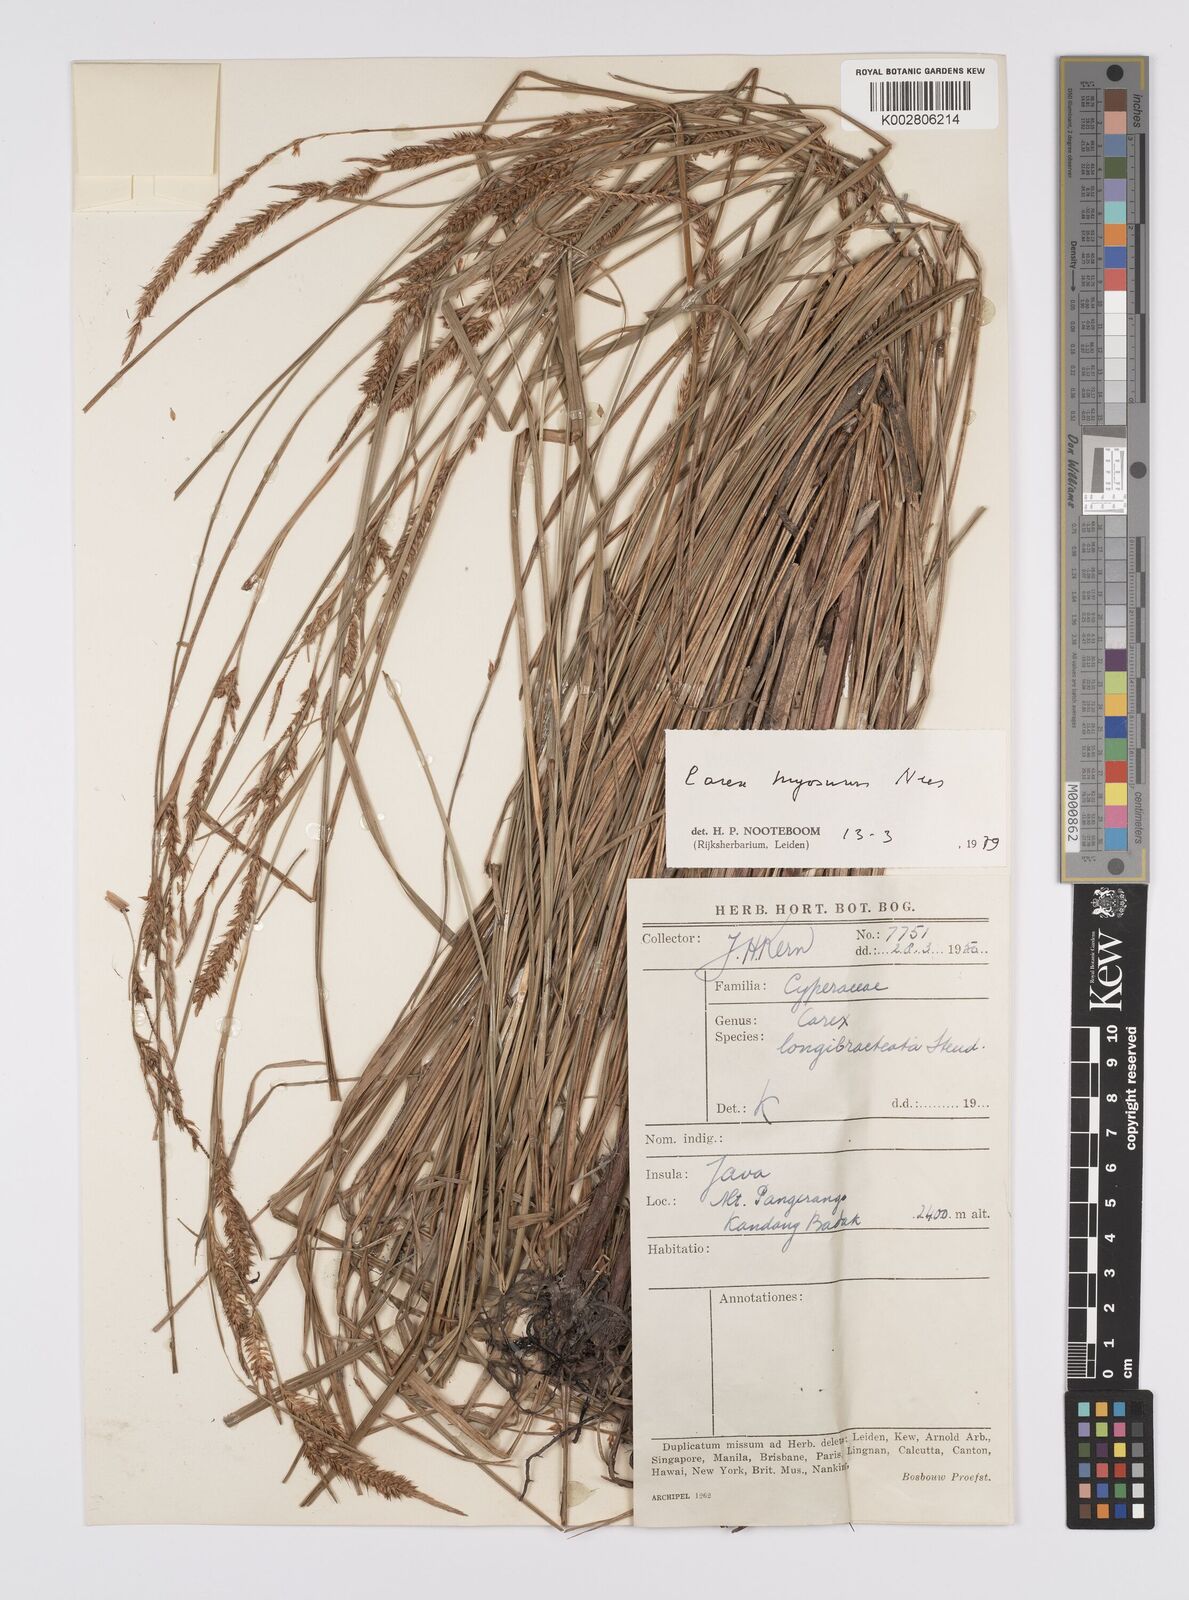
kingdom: Plantae
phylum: Tracheophyta
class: Liliopsida
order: Poales
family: Cyperaceae
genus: Carex
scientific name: Carex myosurus
